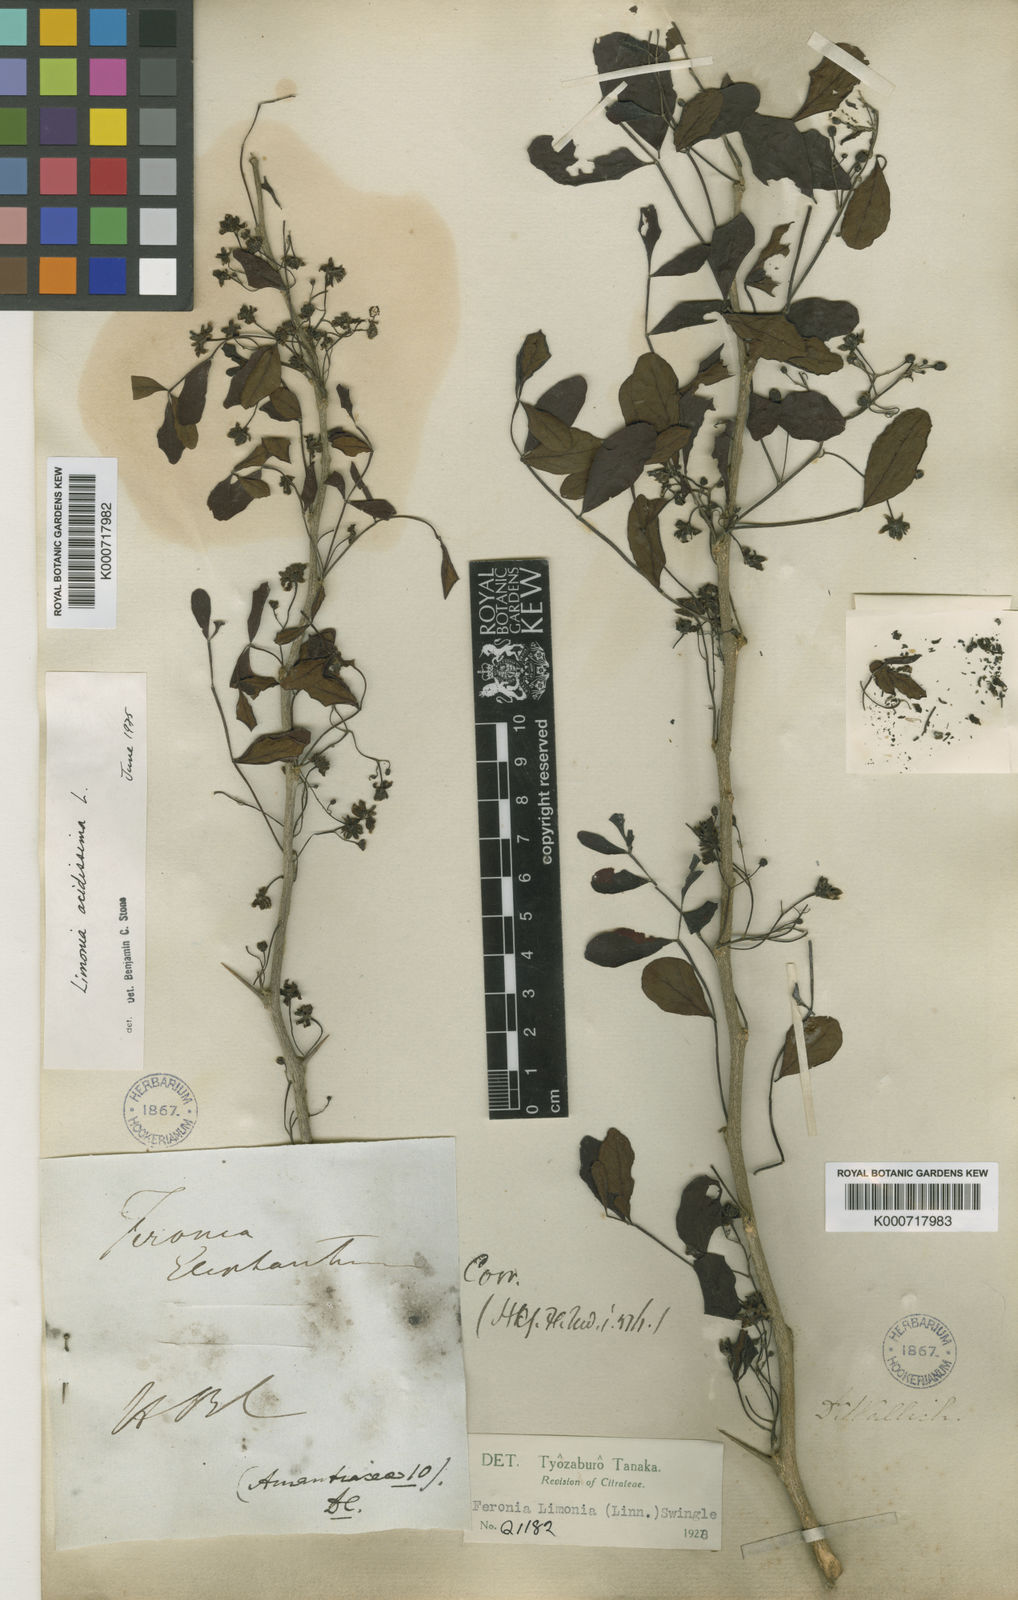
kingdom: Plantae
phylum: Tracheophyta
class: Magnoliopsida
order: Sapindales
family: Rutaceae
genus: Limonia
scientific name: Limonia acidissima
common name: Elephant apple
